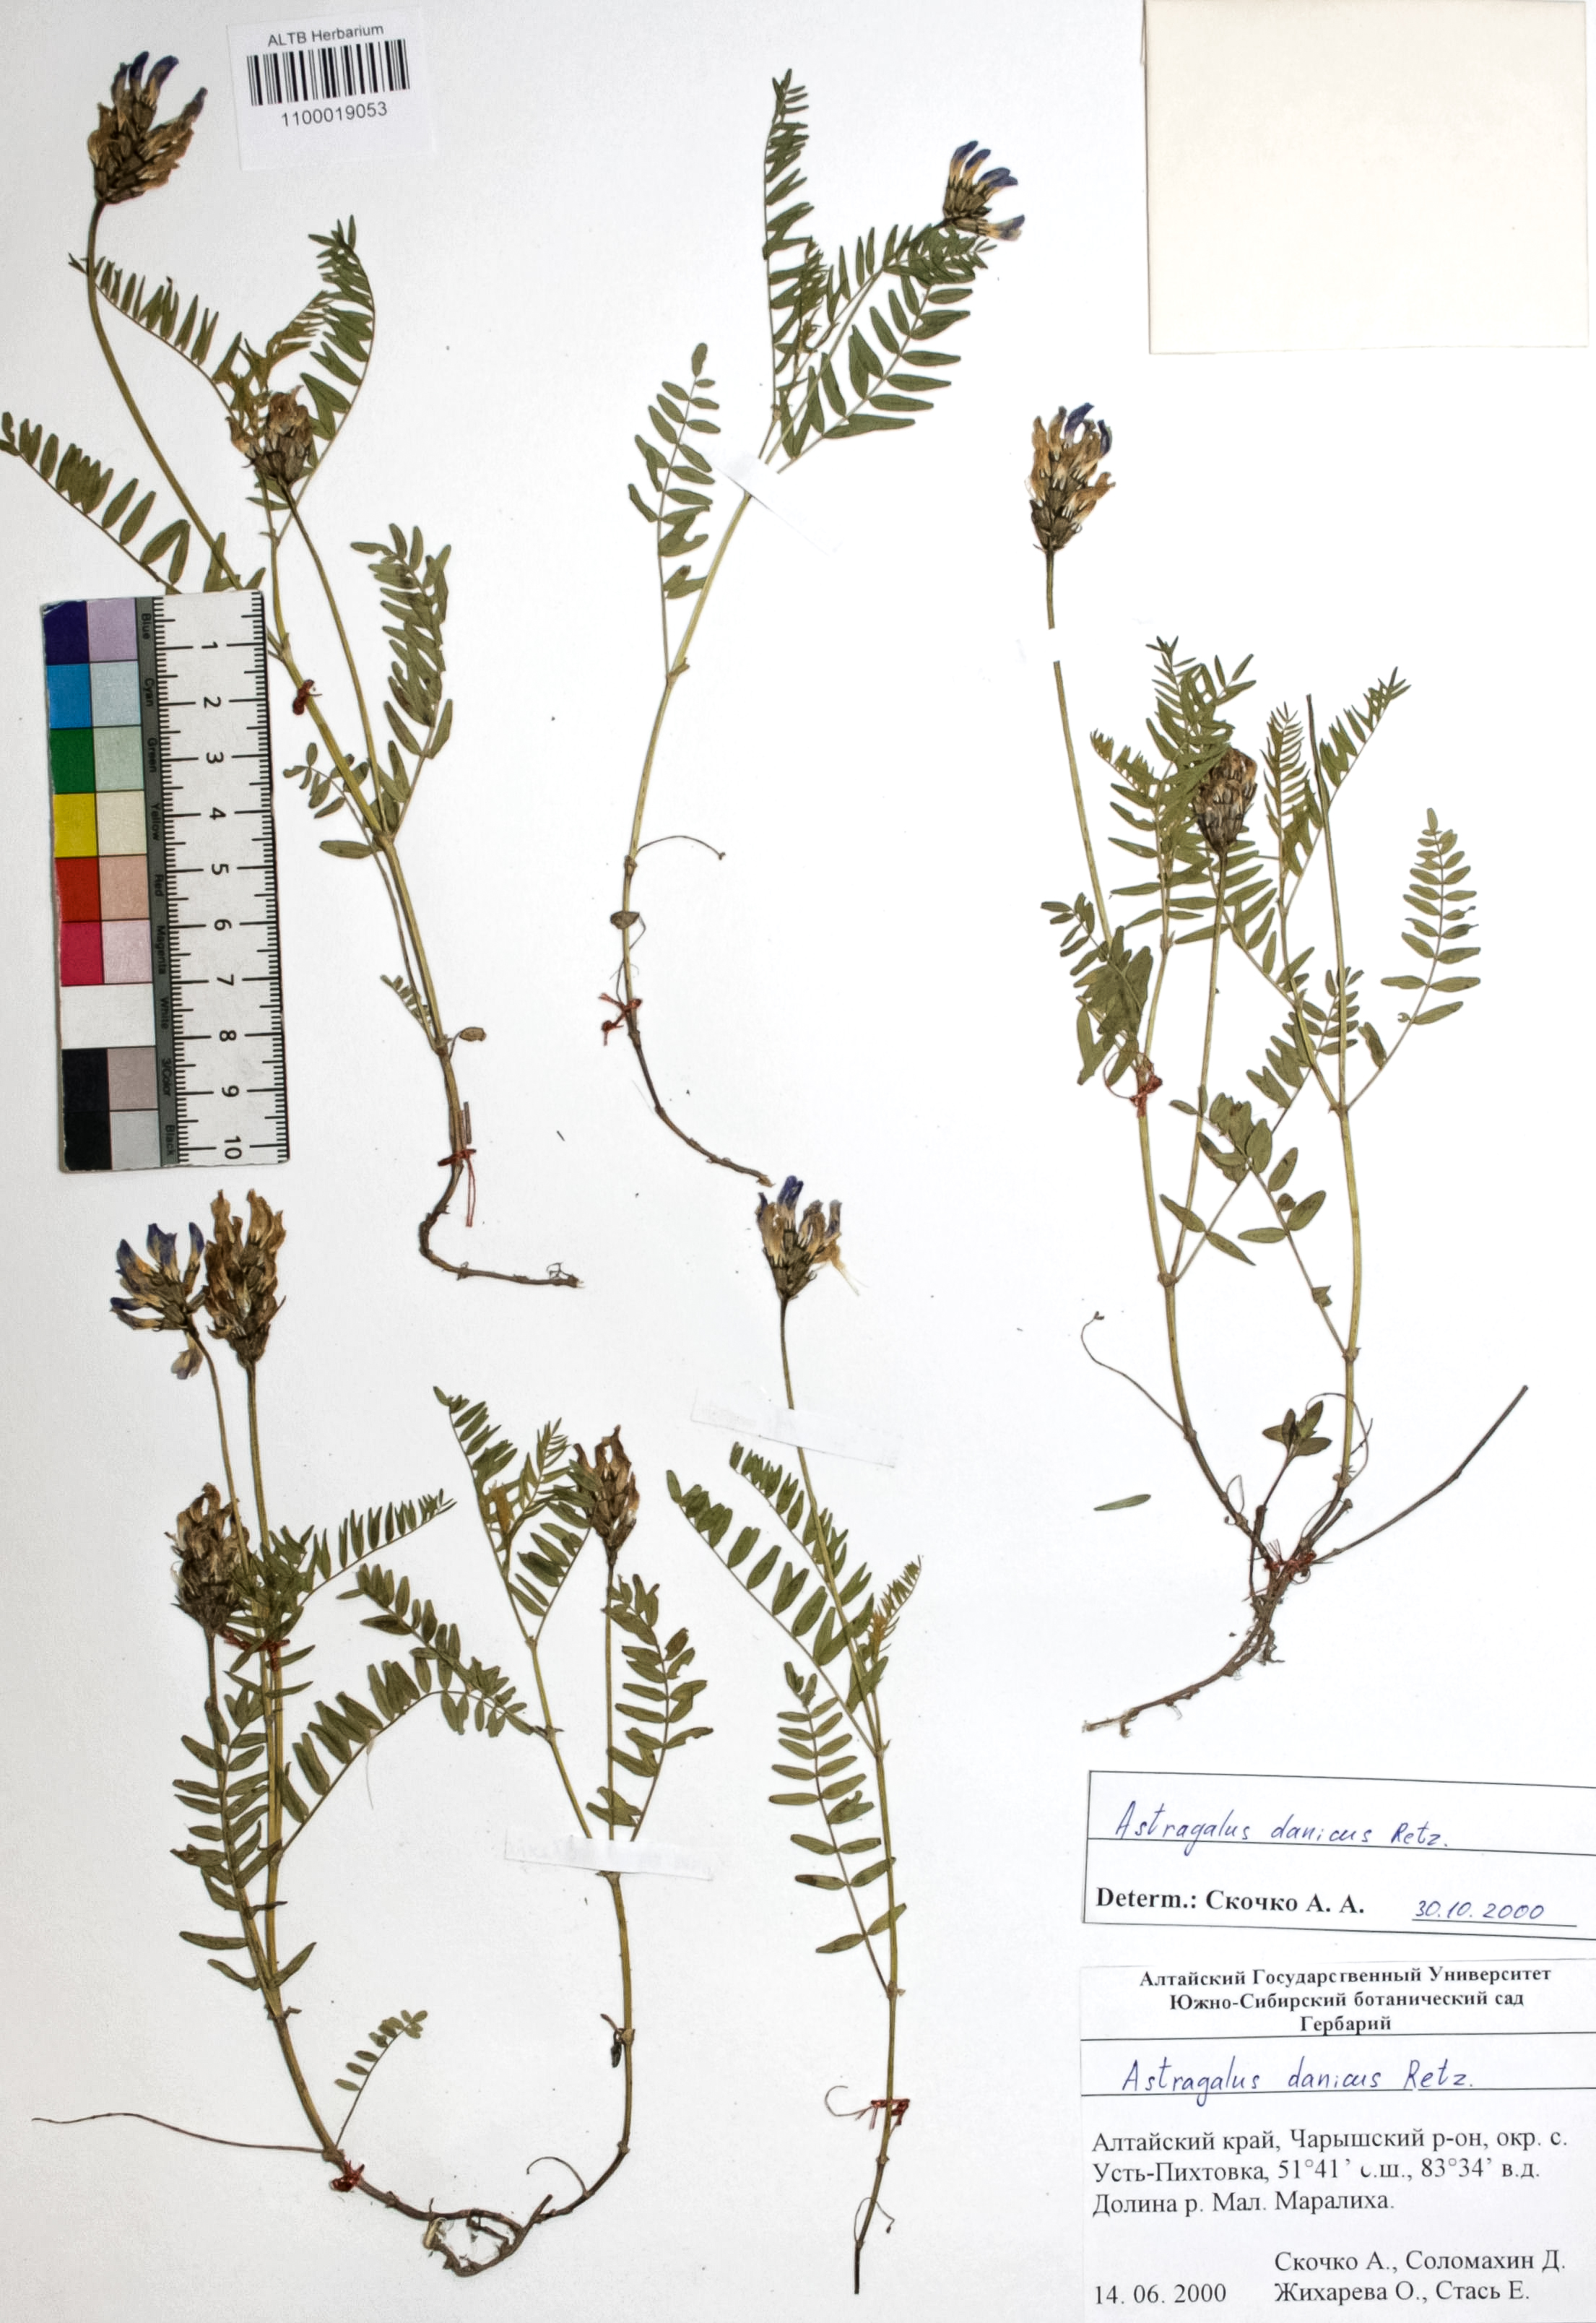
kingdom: Plantae
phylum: Tracheophyta
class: Magnoliopsida
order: Fabales
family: Fabaceae
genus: Astragalus
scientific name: Astragalus danicus
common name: Purple milk-vetch
